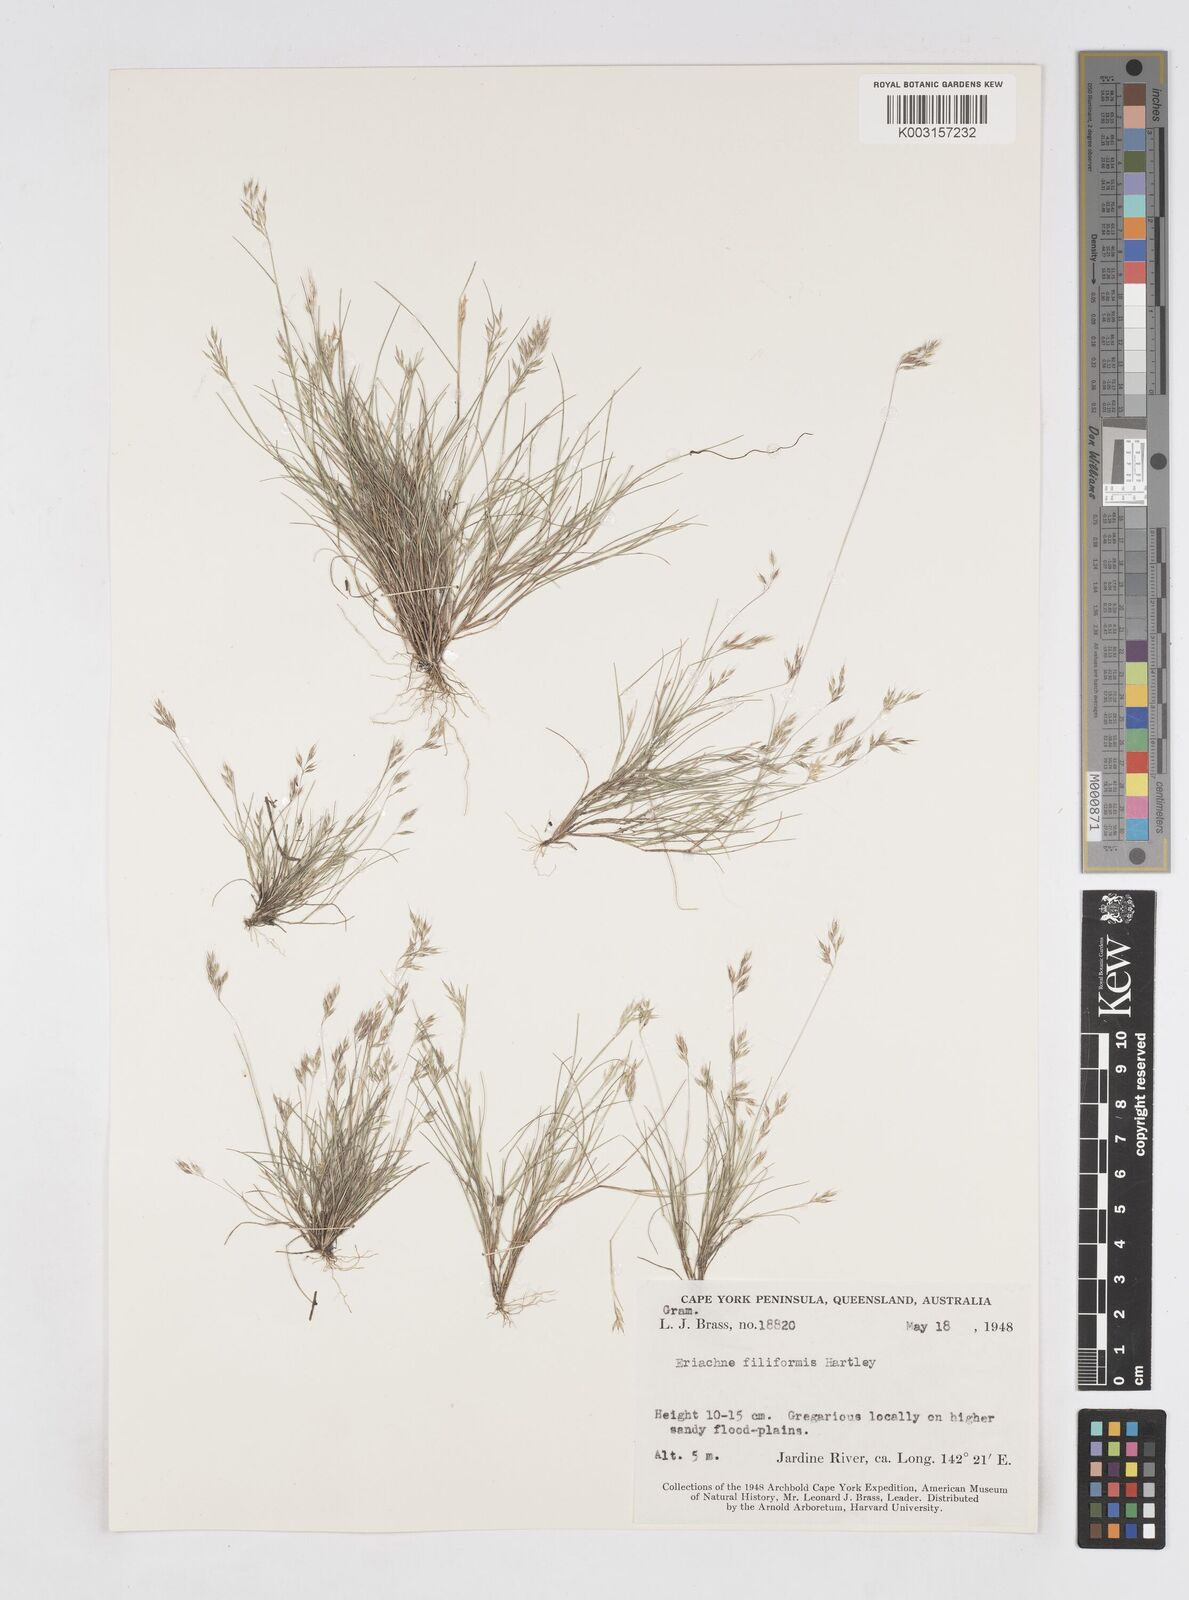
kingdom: Plantae
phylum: Tracheophyta
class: Liliopsida
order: Poales
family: Poaceae
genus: Eriachne
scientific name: Eriachne filiformis
